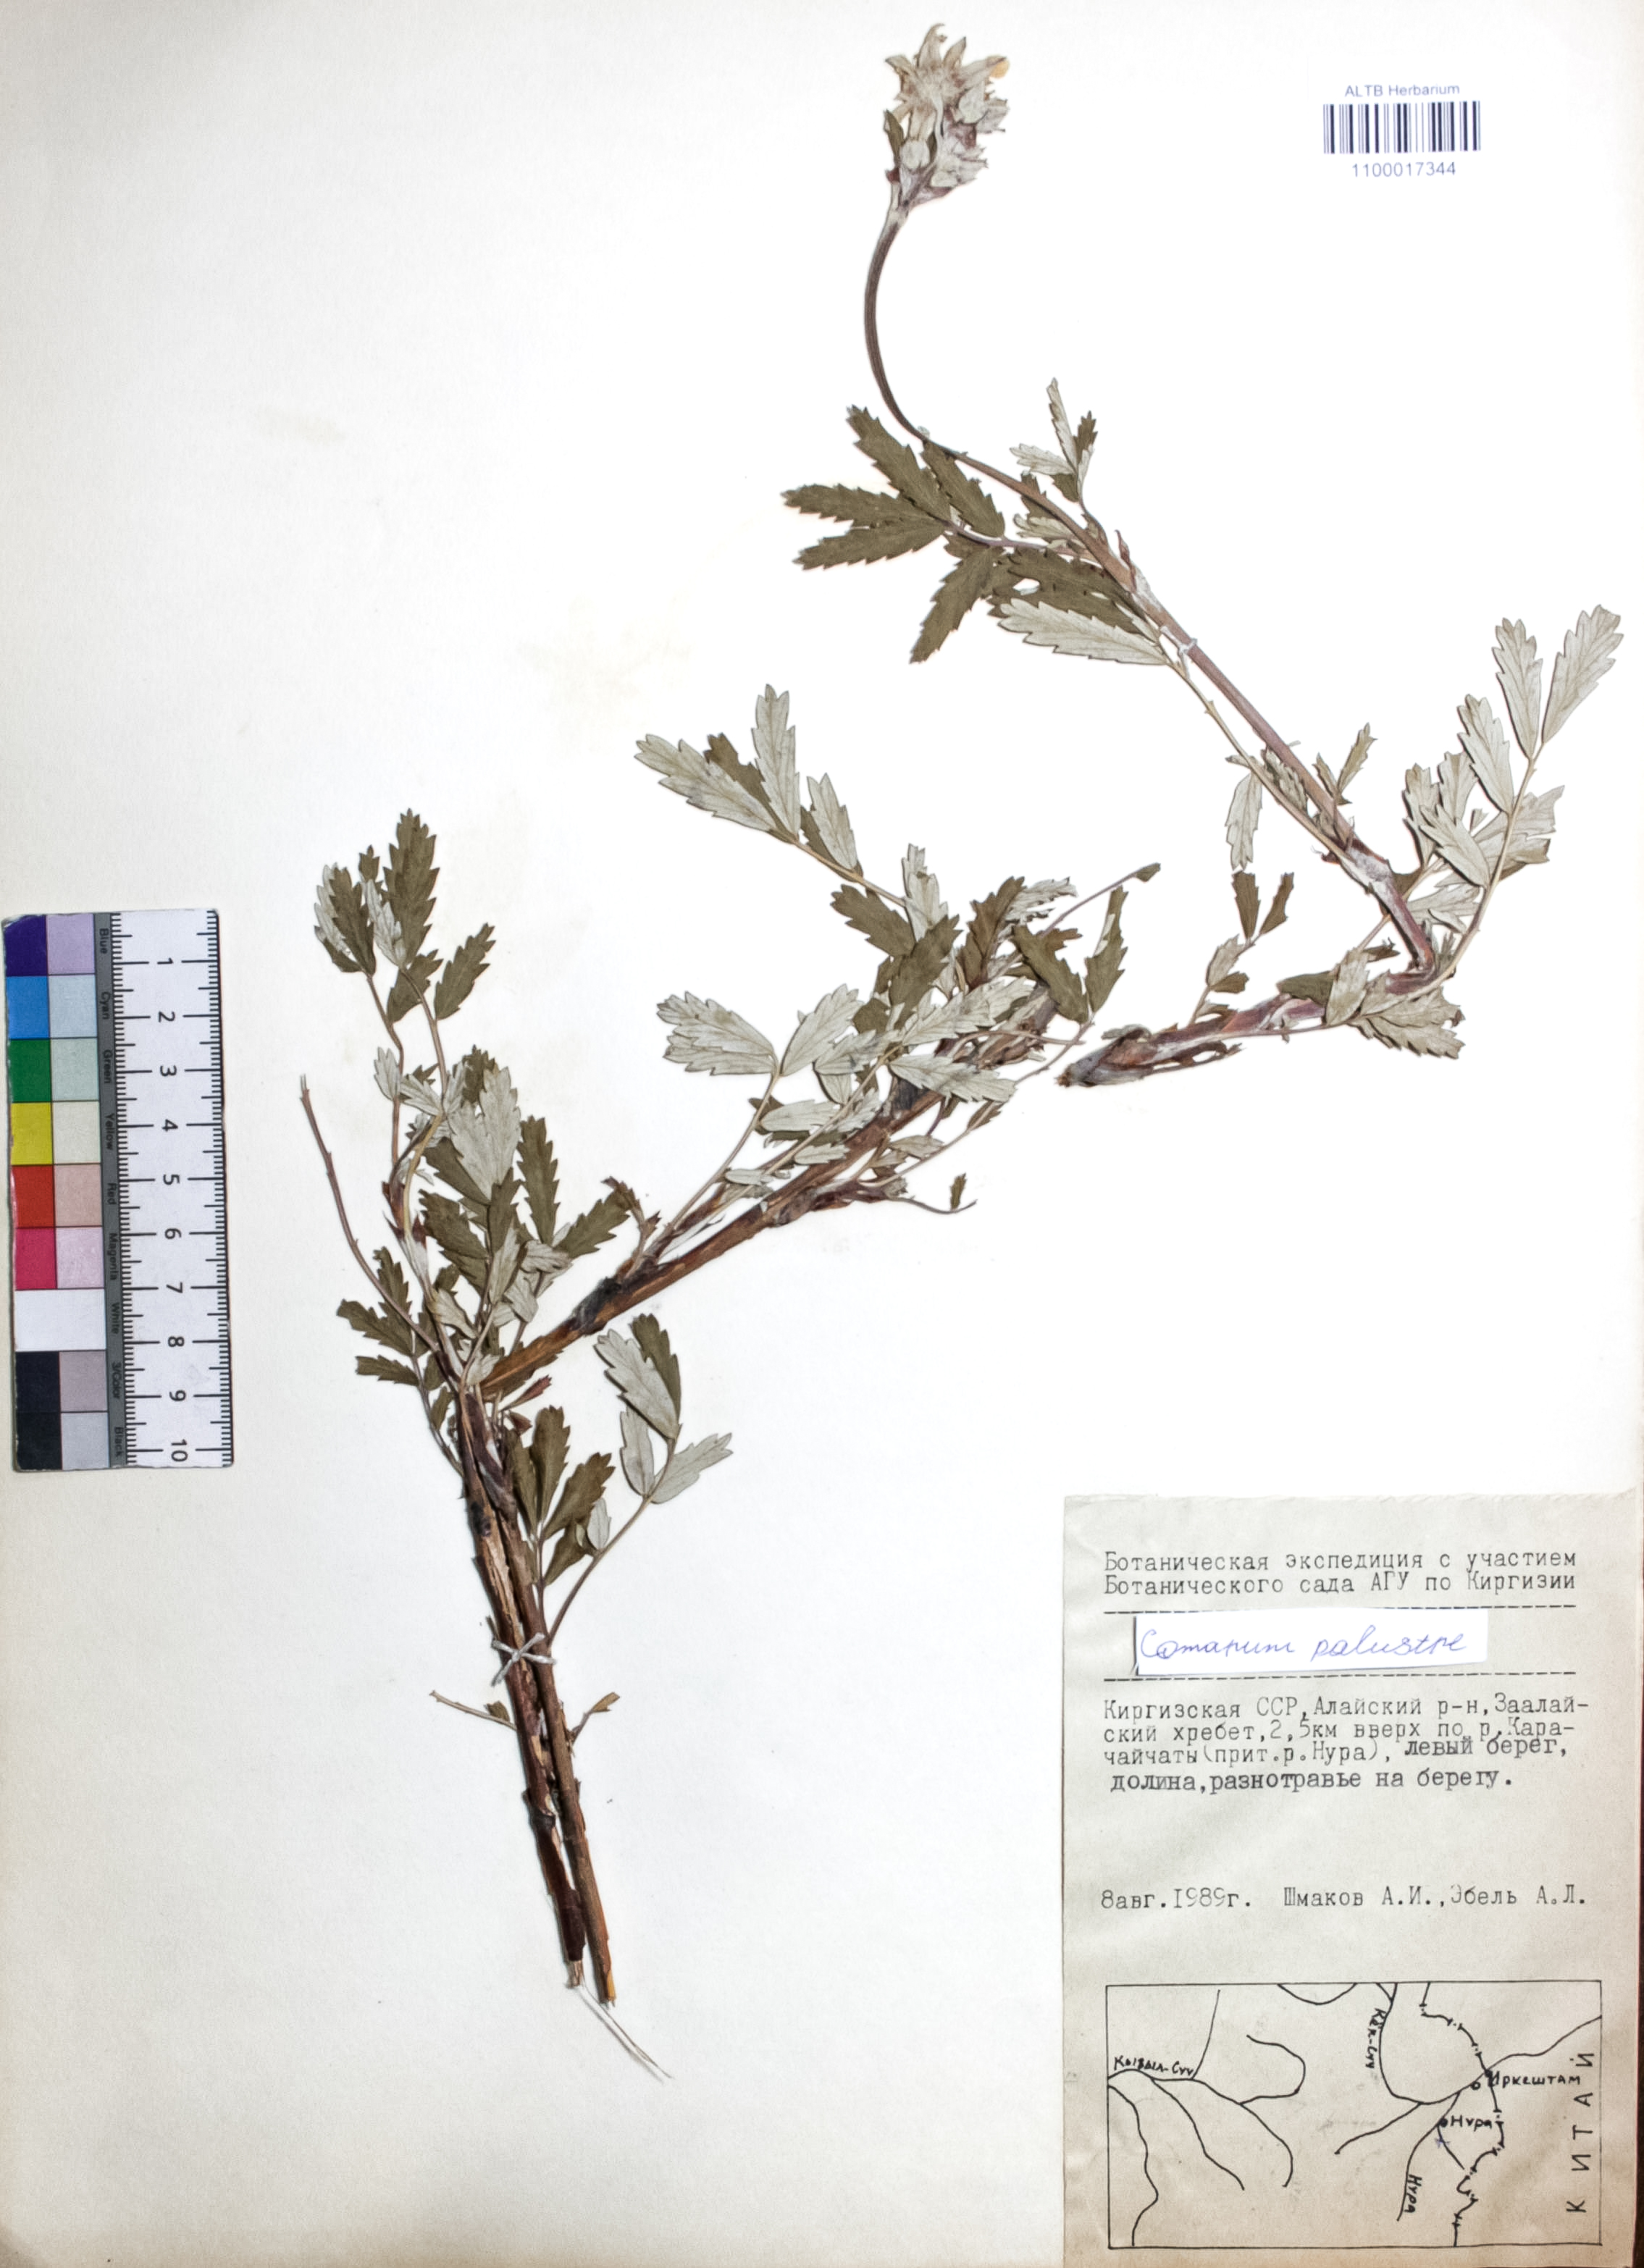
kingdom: Plantae
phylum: Tracheophyta
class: Magnoliopsida
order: Rosales
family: Rosaceae
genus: Comarum
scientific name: Comarum palustre
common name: Marsh cinquefoil
